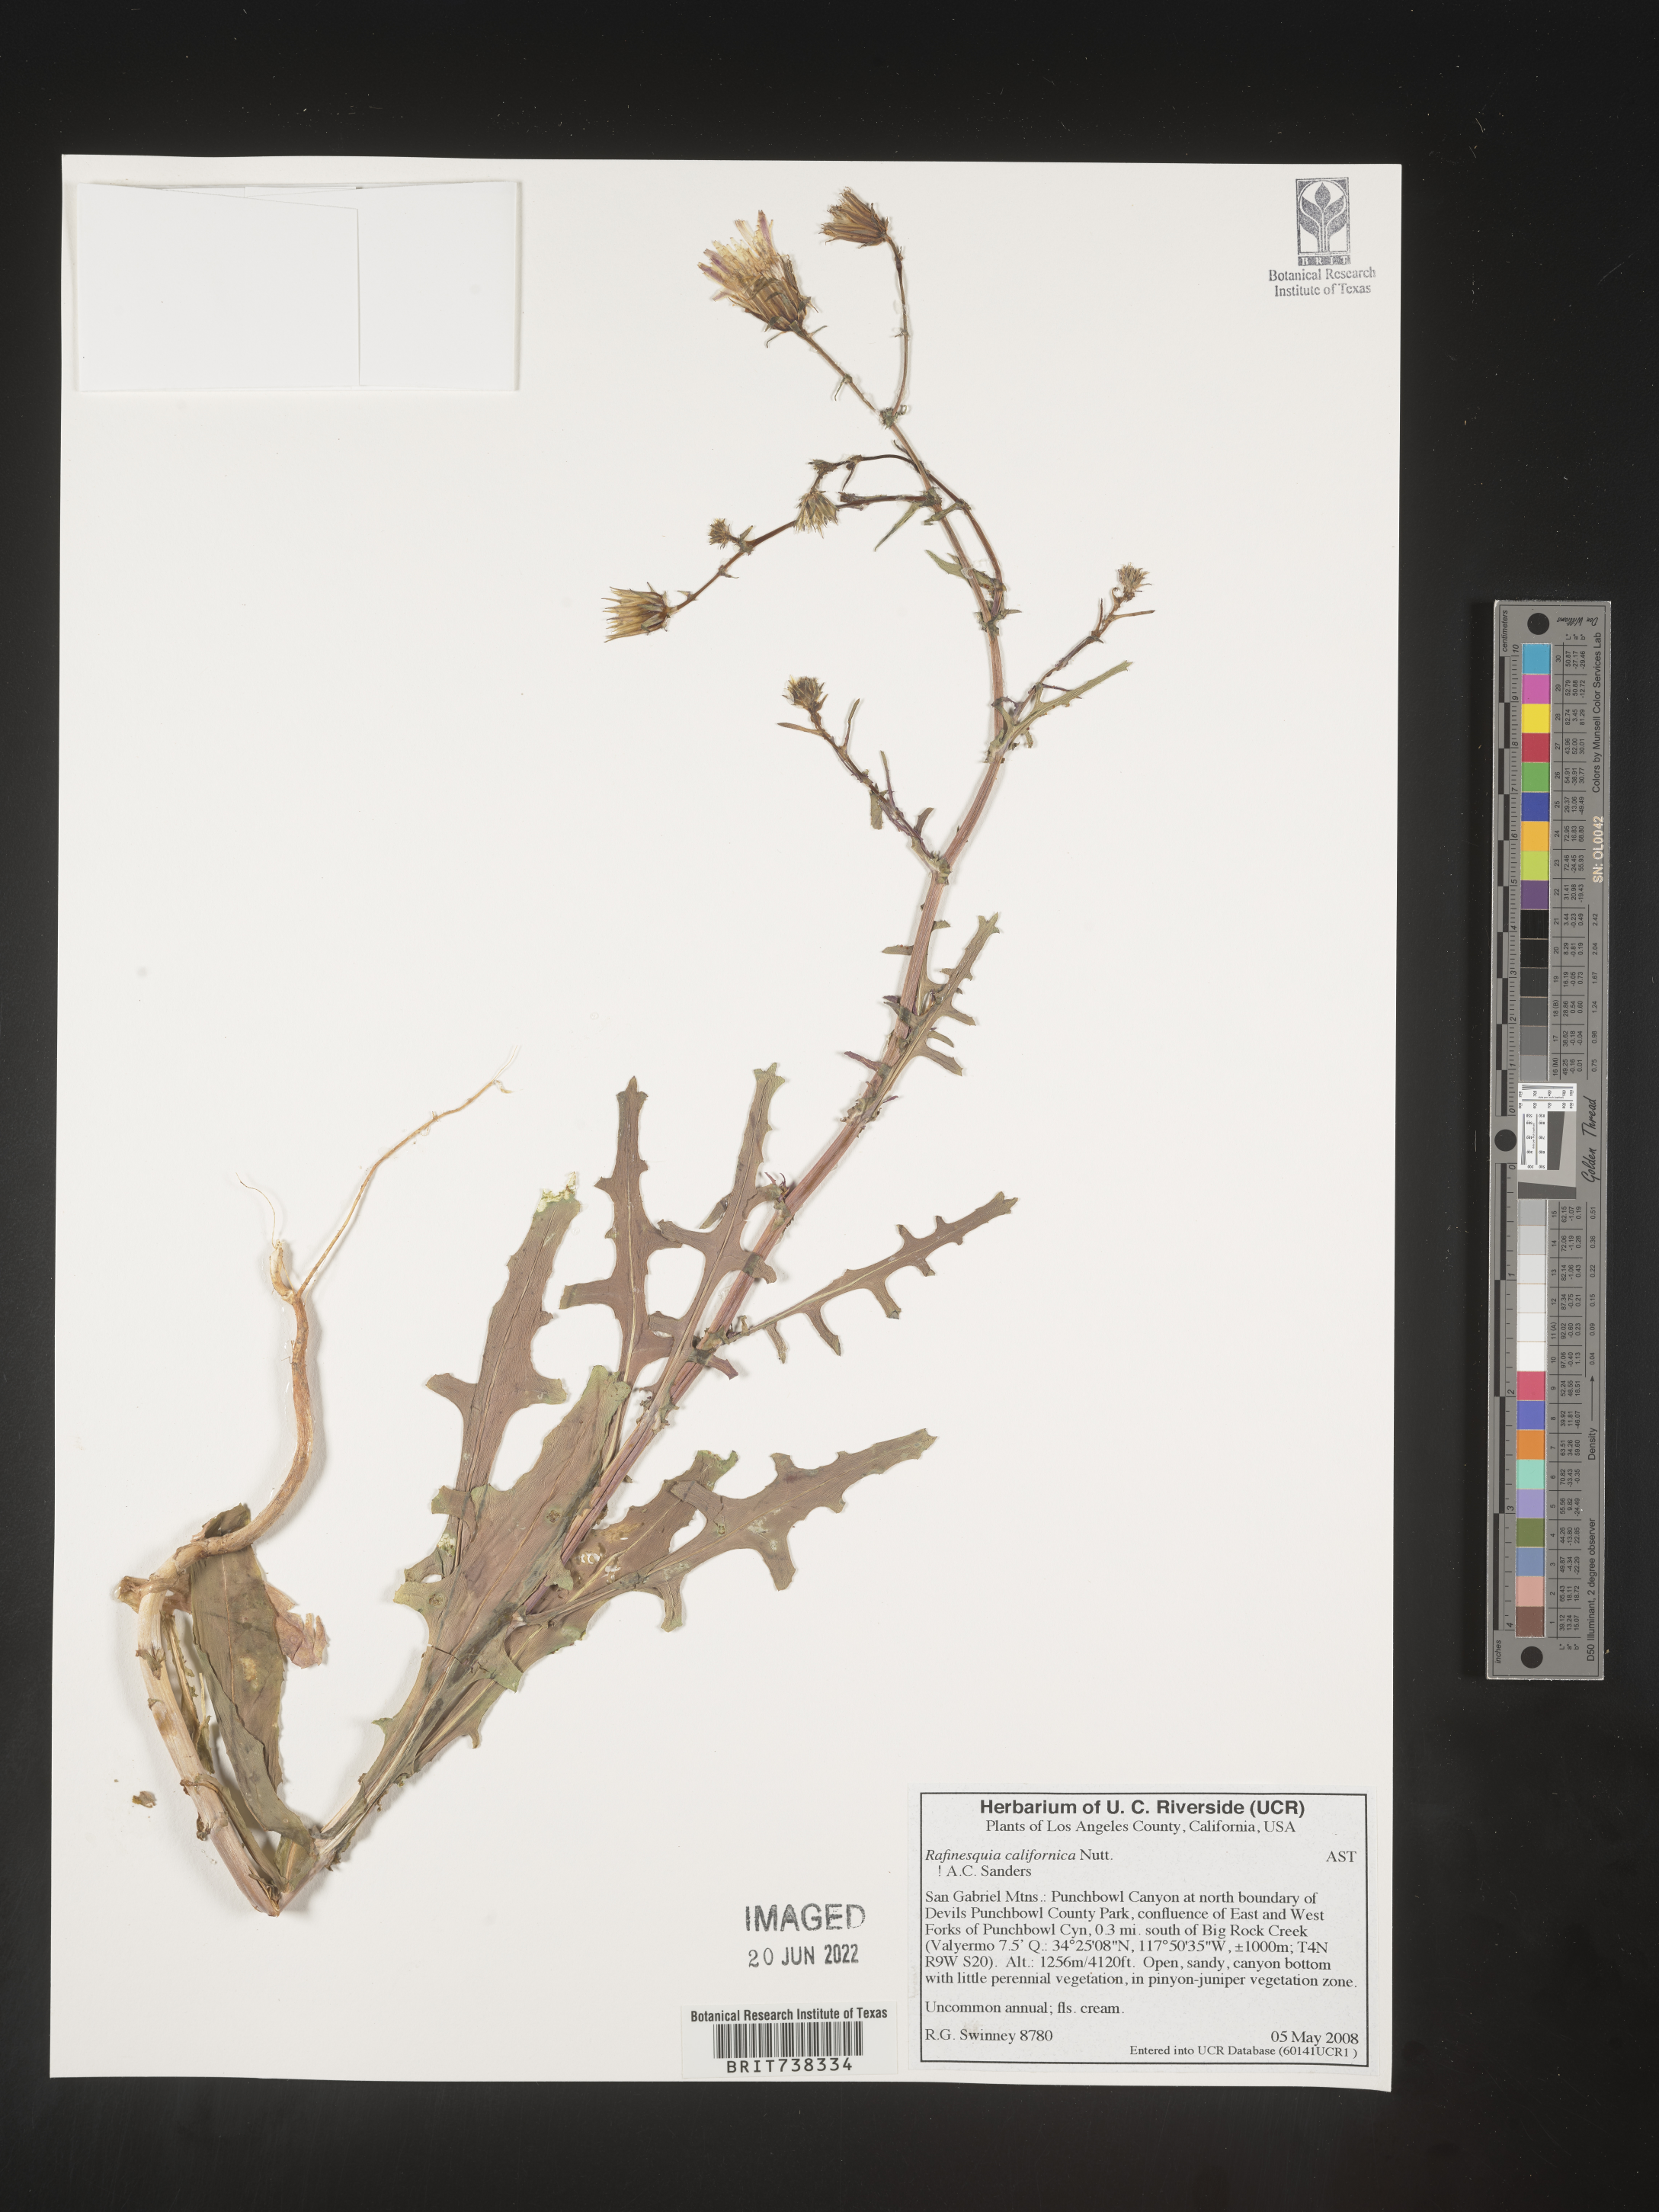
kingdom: Plantae
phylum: Tracheophyta
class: Magnoliopsida
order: Asterales
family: Asteraceae
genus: Rafinesquia
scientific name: Rafinesquia
